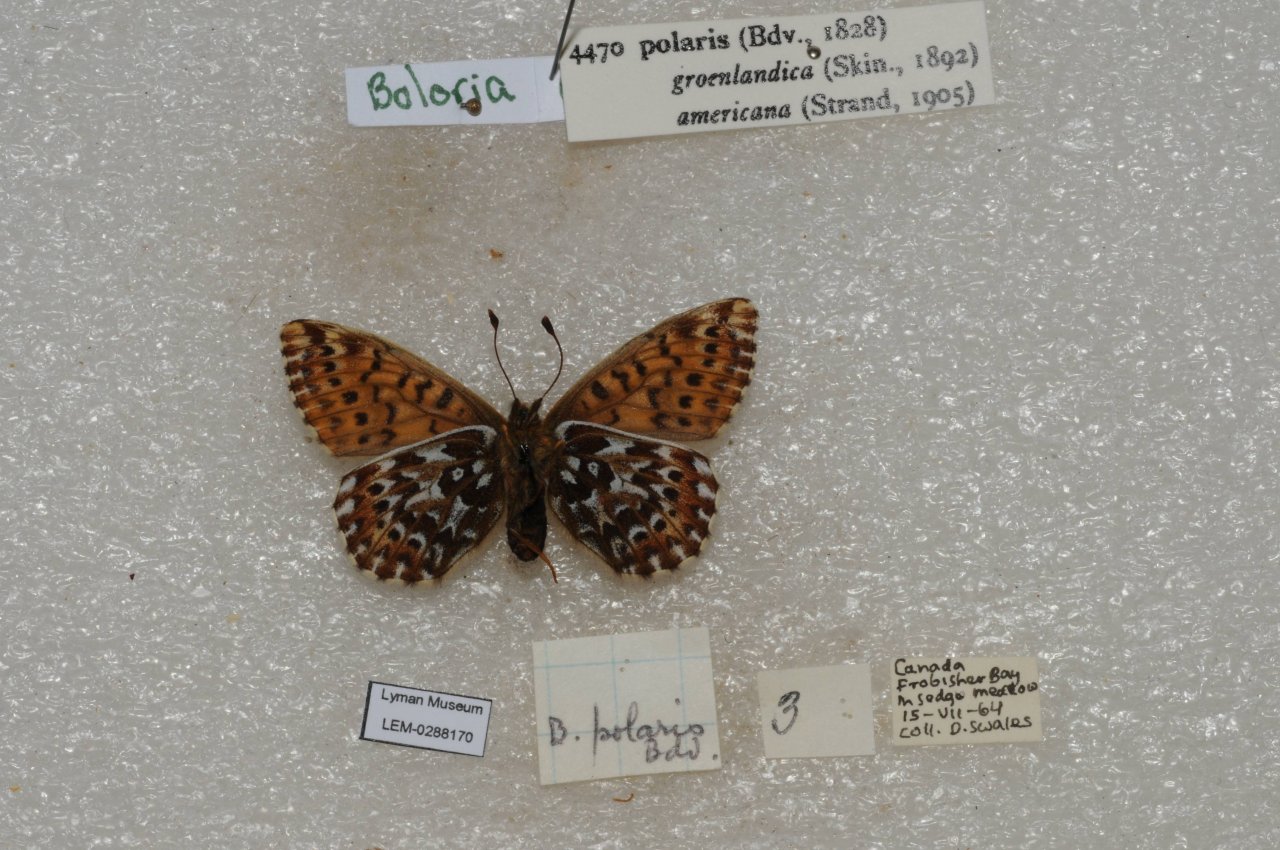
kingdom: Animalia
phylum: Arthropoda
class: Insecta
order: Lepidoptera
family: Nymphalidae
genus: Clossiana
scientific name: Clossiana polaris
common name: Polaris Fritillary
